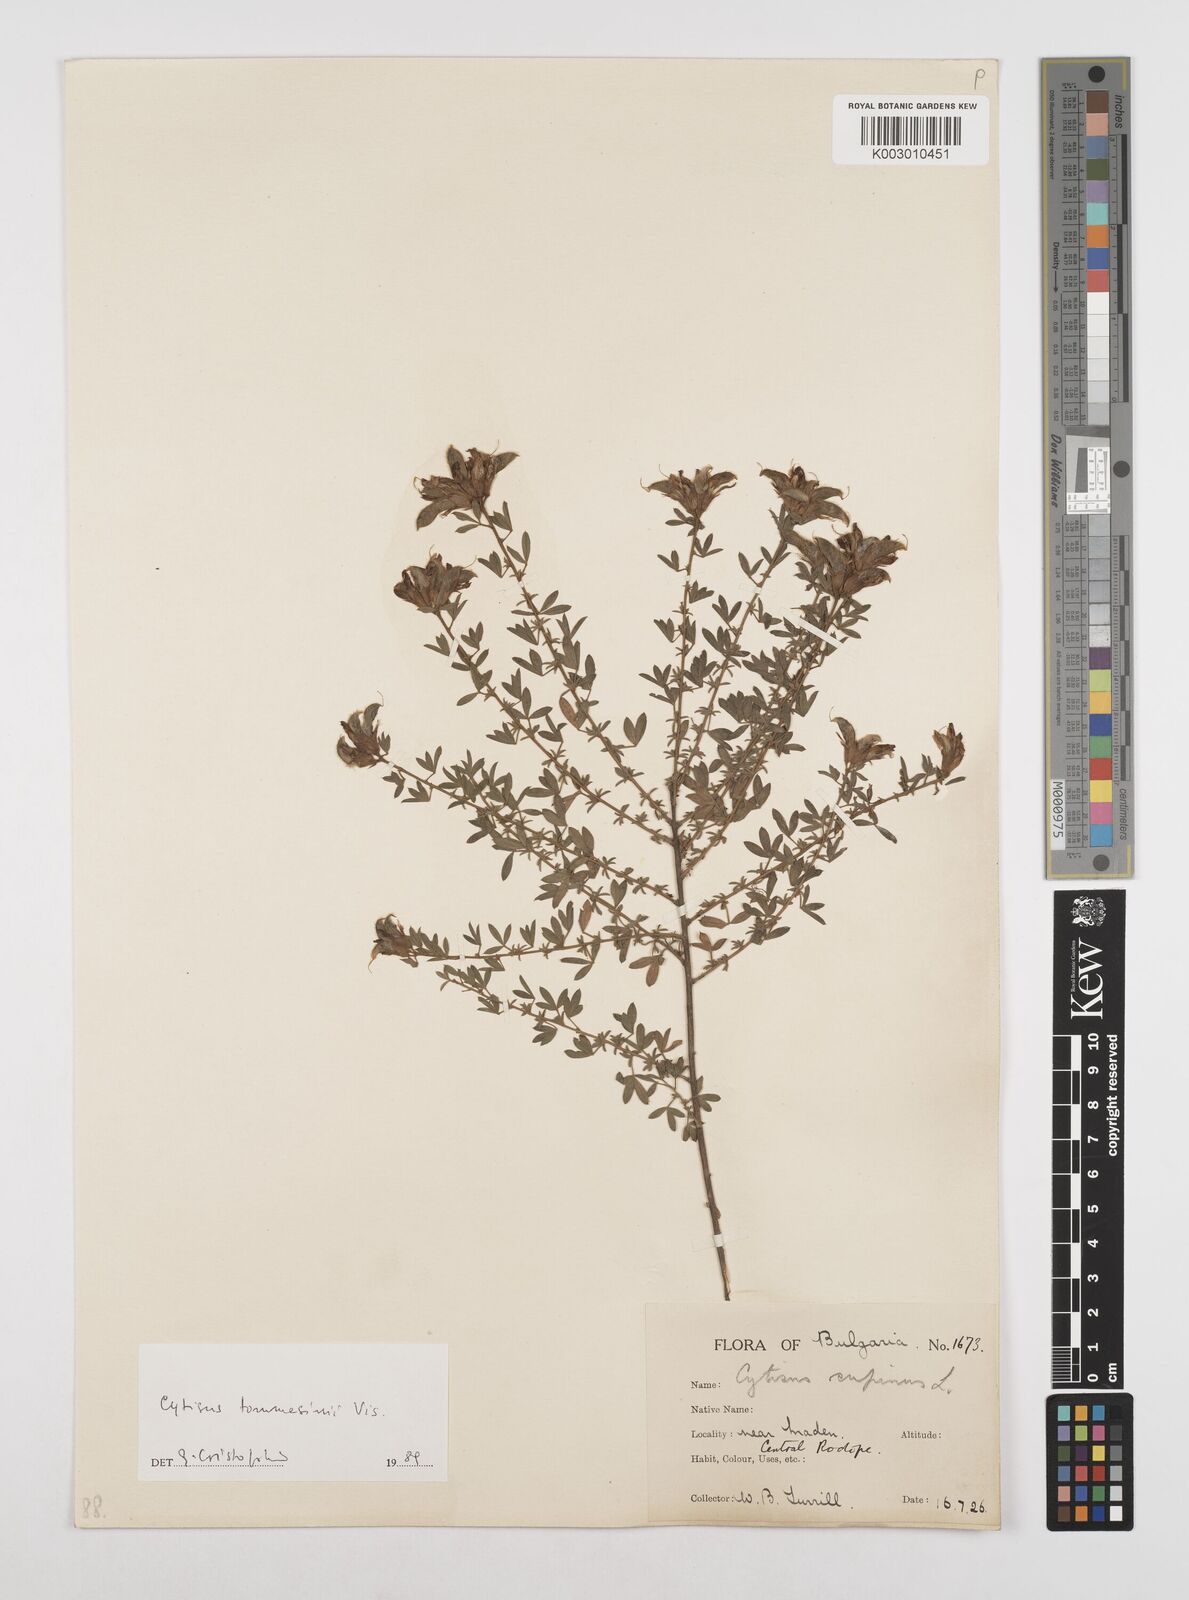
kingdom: Plantae
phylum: Tracheophyta
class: Magnoliopsida
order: Fabales
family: Fabaceae
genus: Chamaecytisus
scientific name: Chamaecytisus tommasinii
